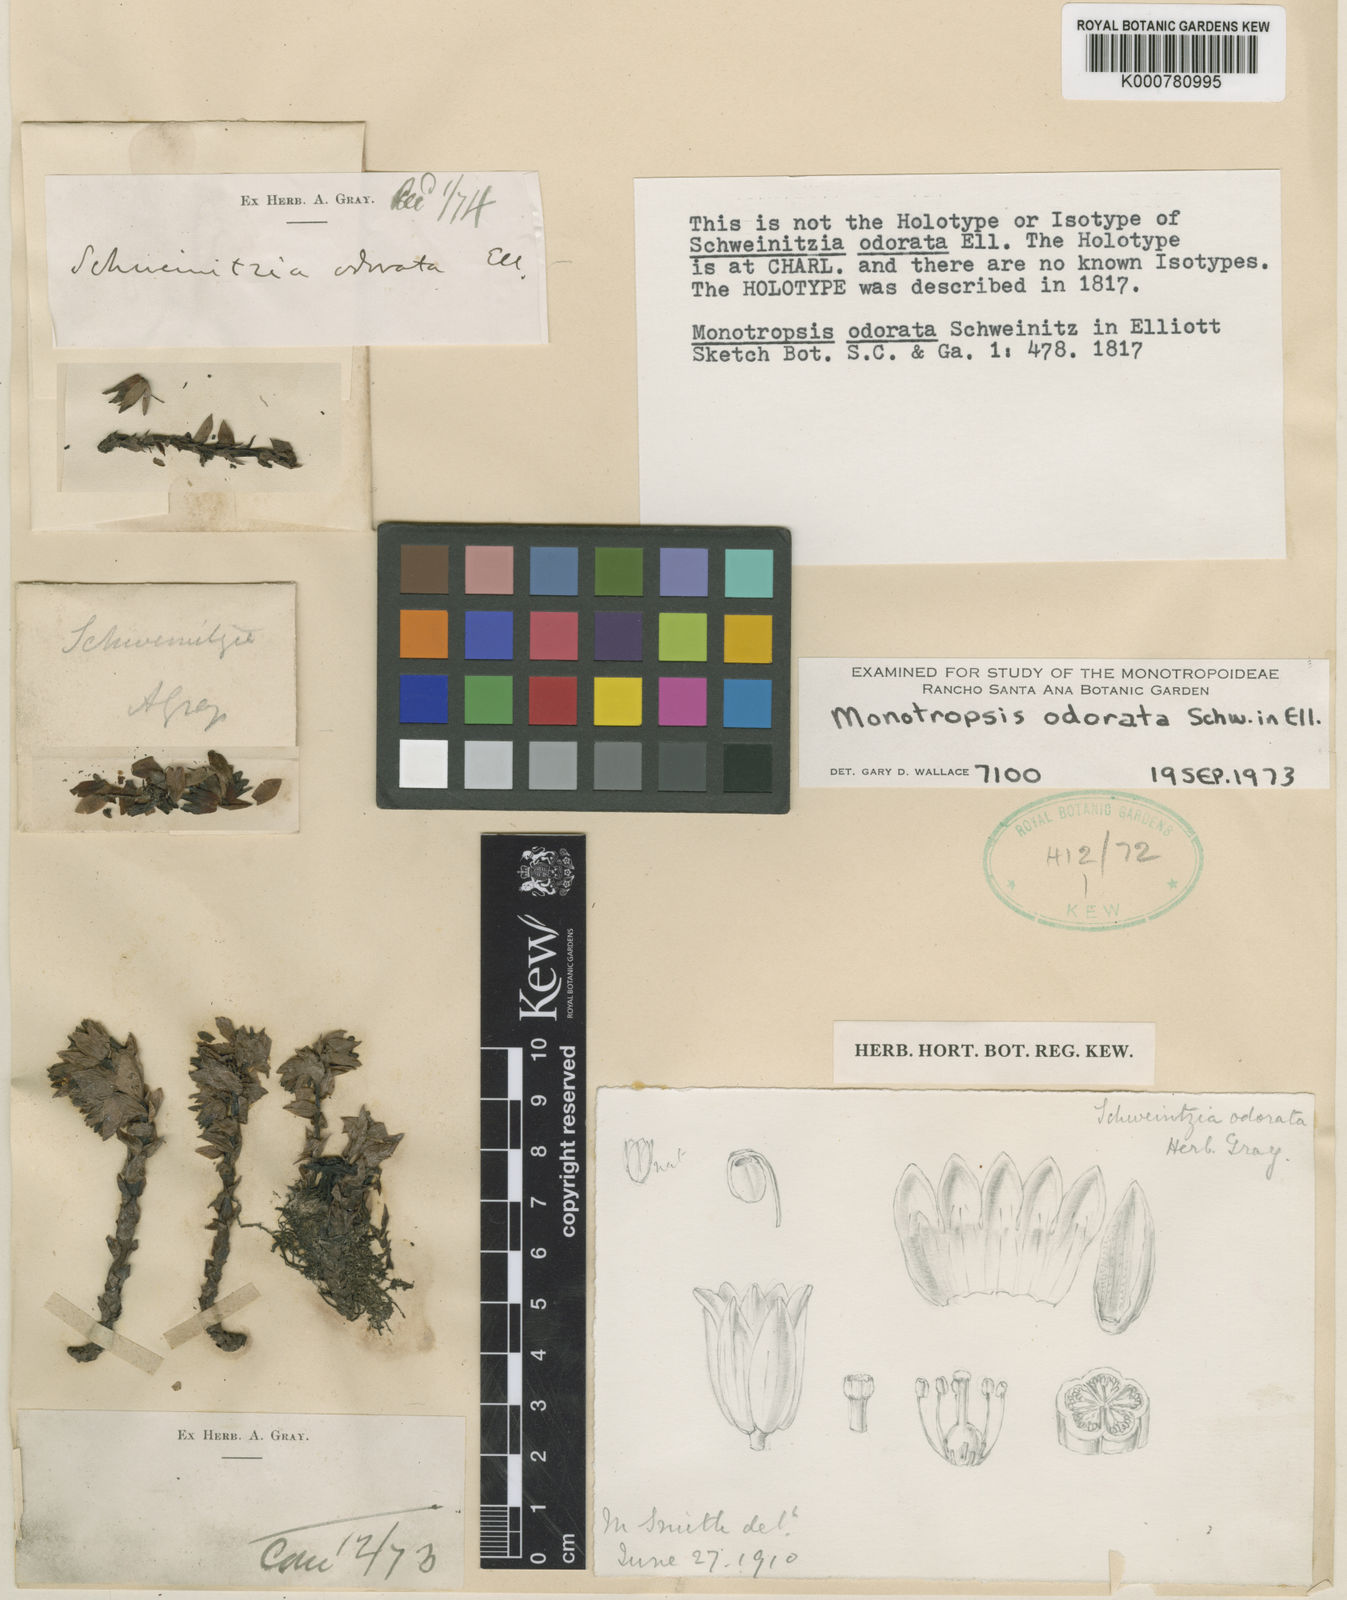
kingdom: Plantae
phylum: Tracheophyta
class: Magnoliopsida
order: Ericales
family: Ericaceae
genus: Monotropsis
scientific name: Monotropsis
